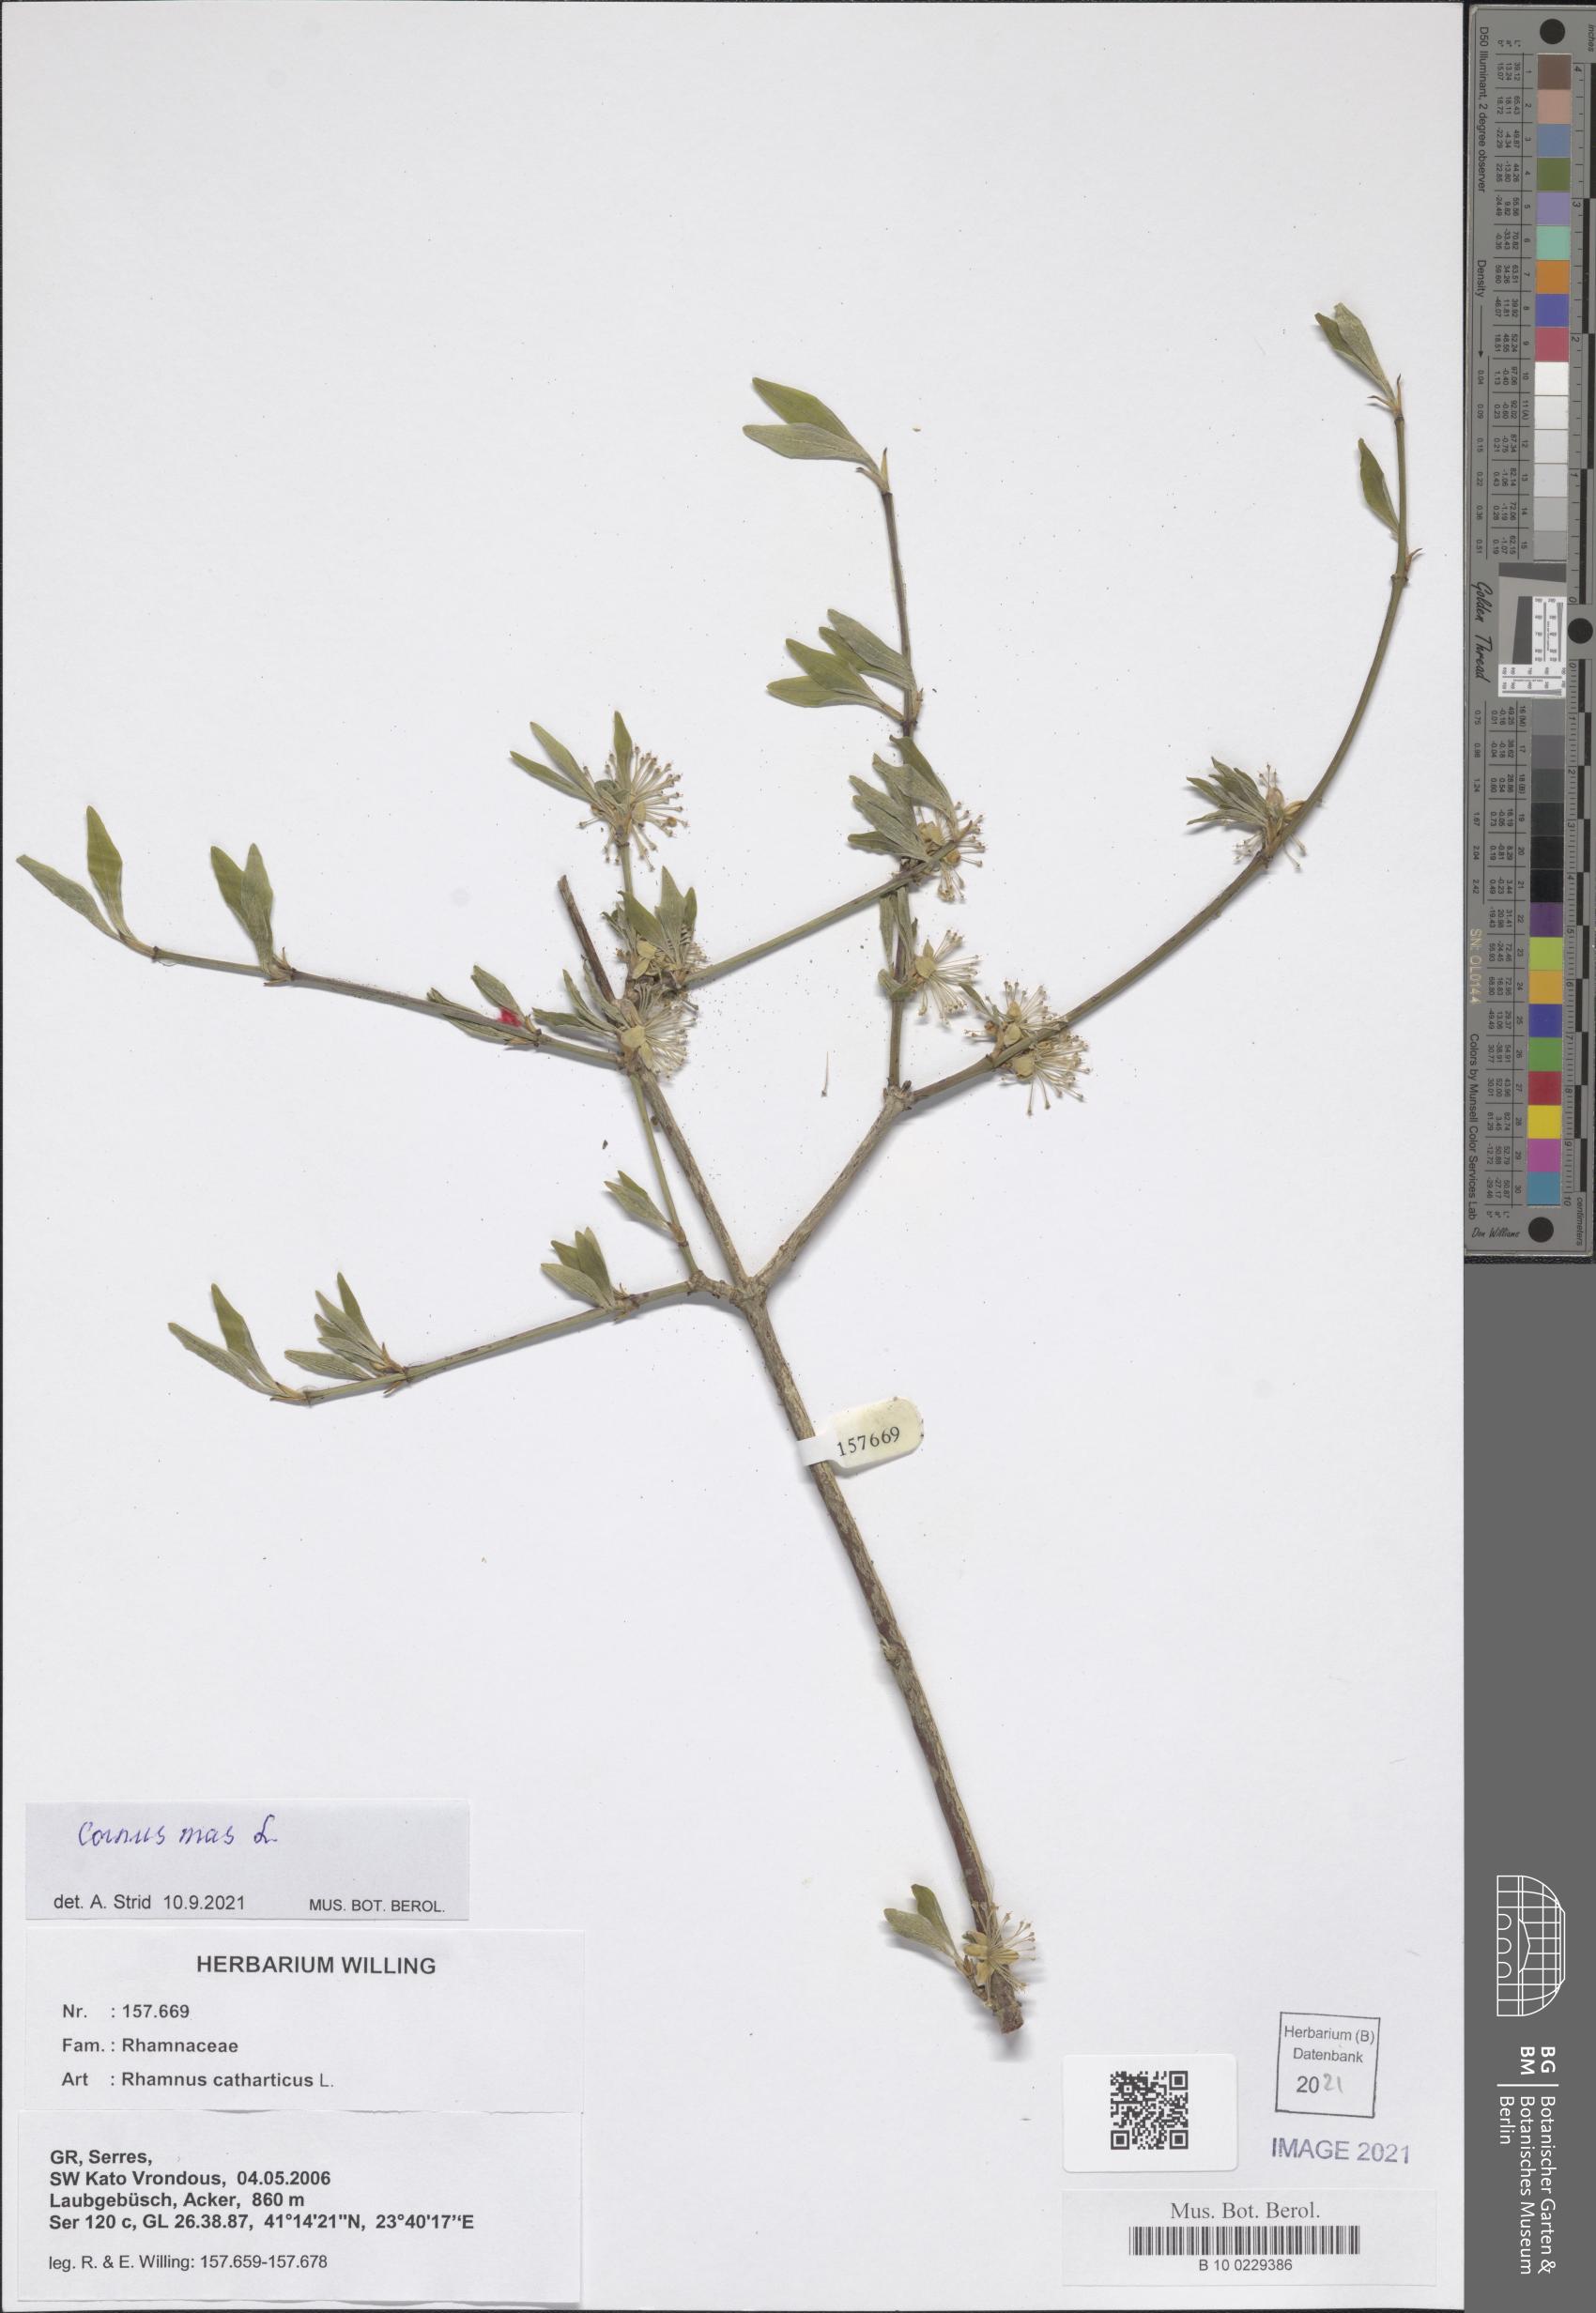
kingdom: Plantae
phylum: Tracheophyta
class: Magnoliopsida
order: Cornales
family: Cornaceae
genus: Cornus
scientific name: Cornus mas
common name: Cornelian-cherry
